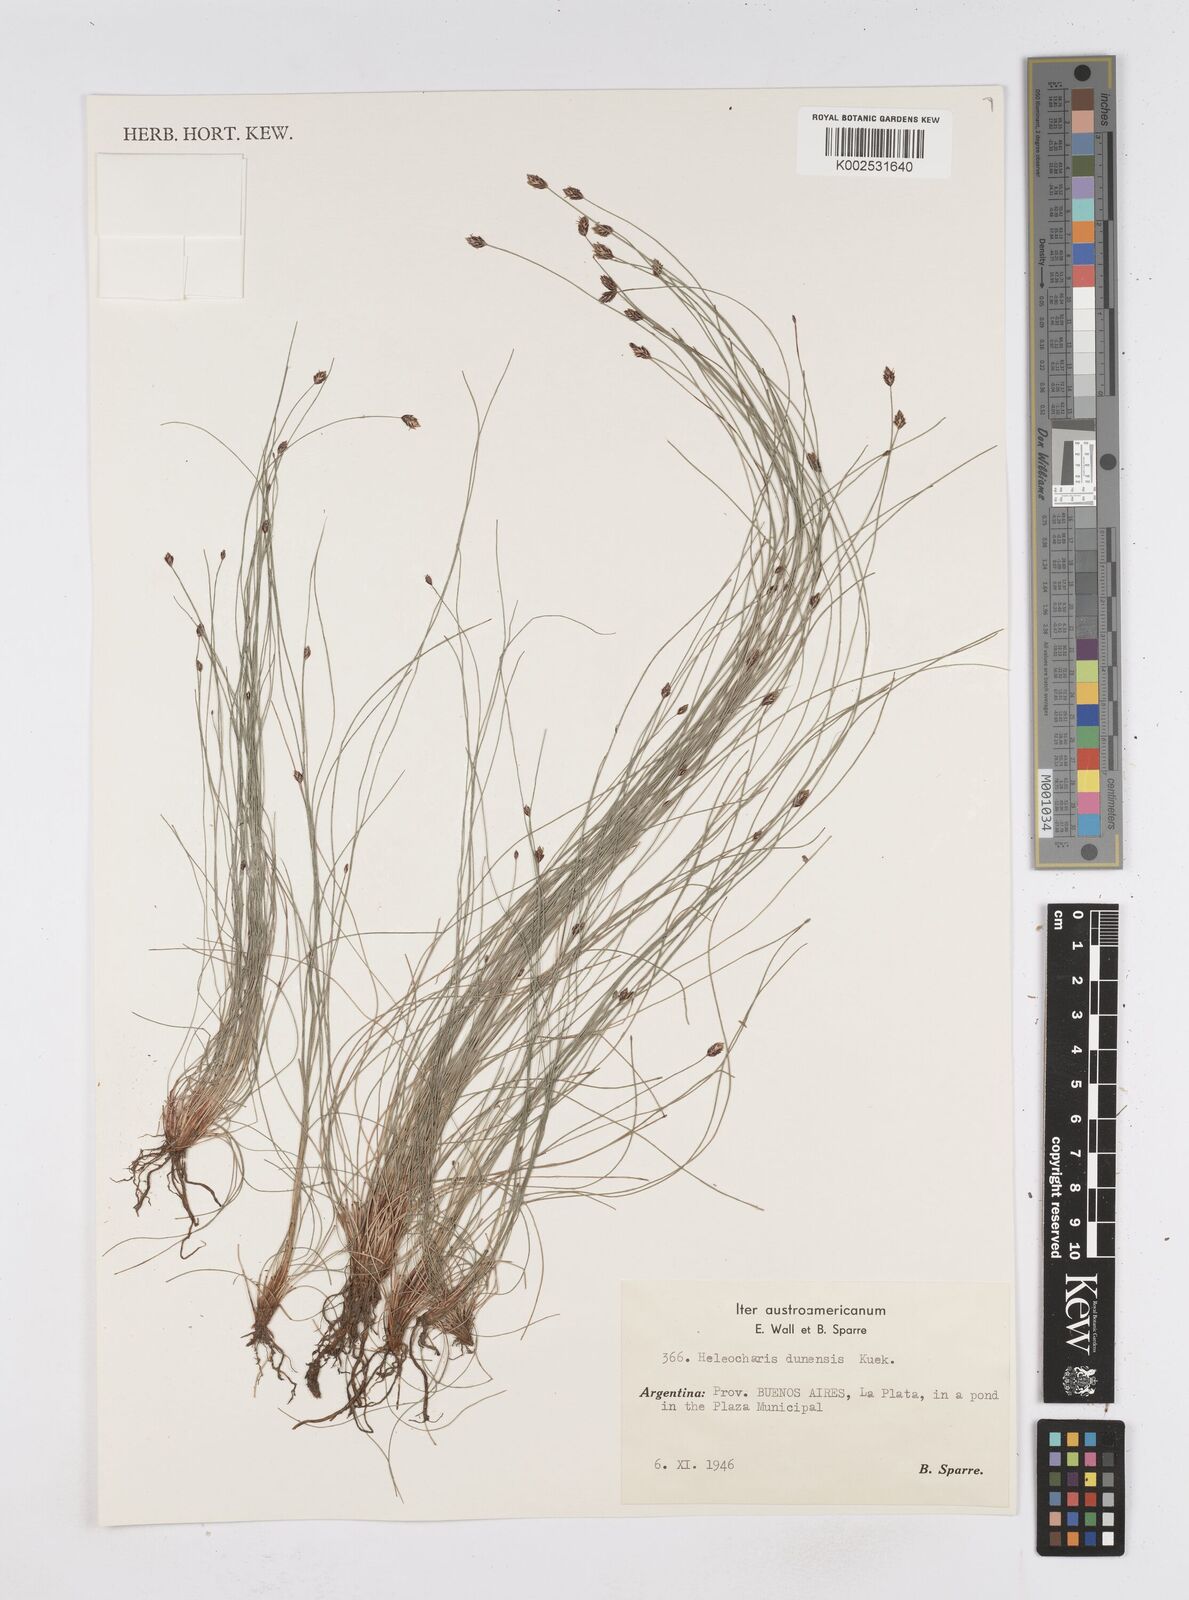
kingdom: Plantae
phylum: Tracheophyta
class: Liliopsida
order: Poales
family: Cyperaceae
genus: Eleocharis
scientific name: Eleocharis dunensis
